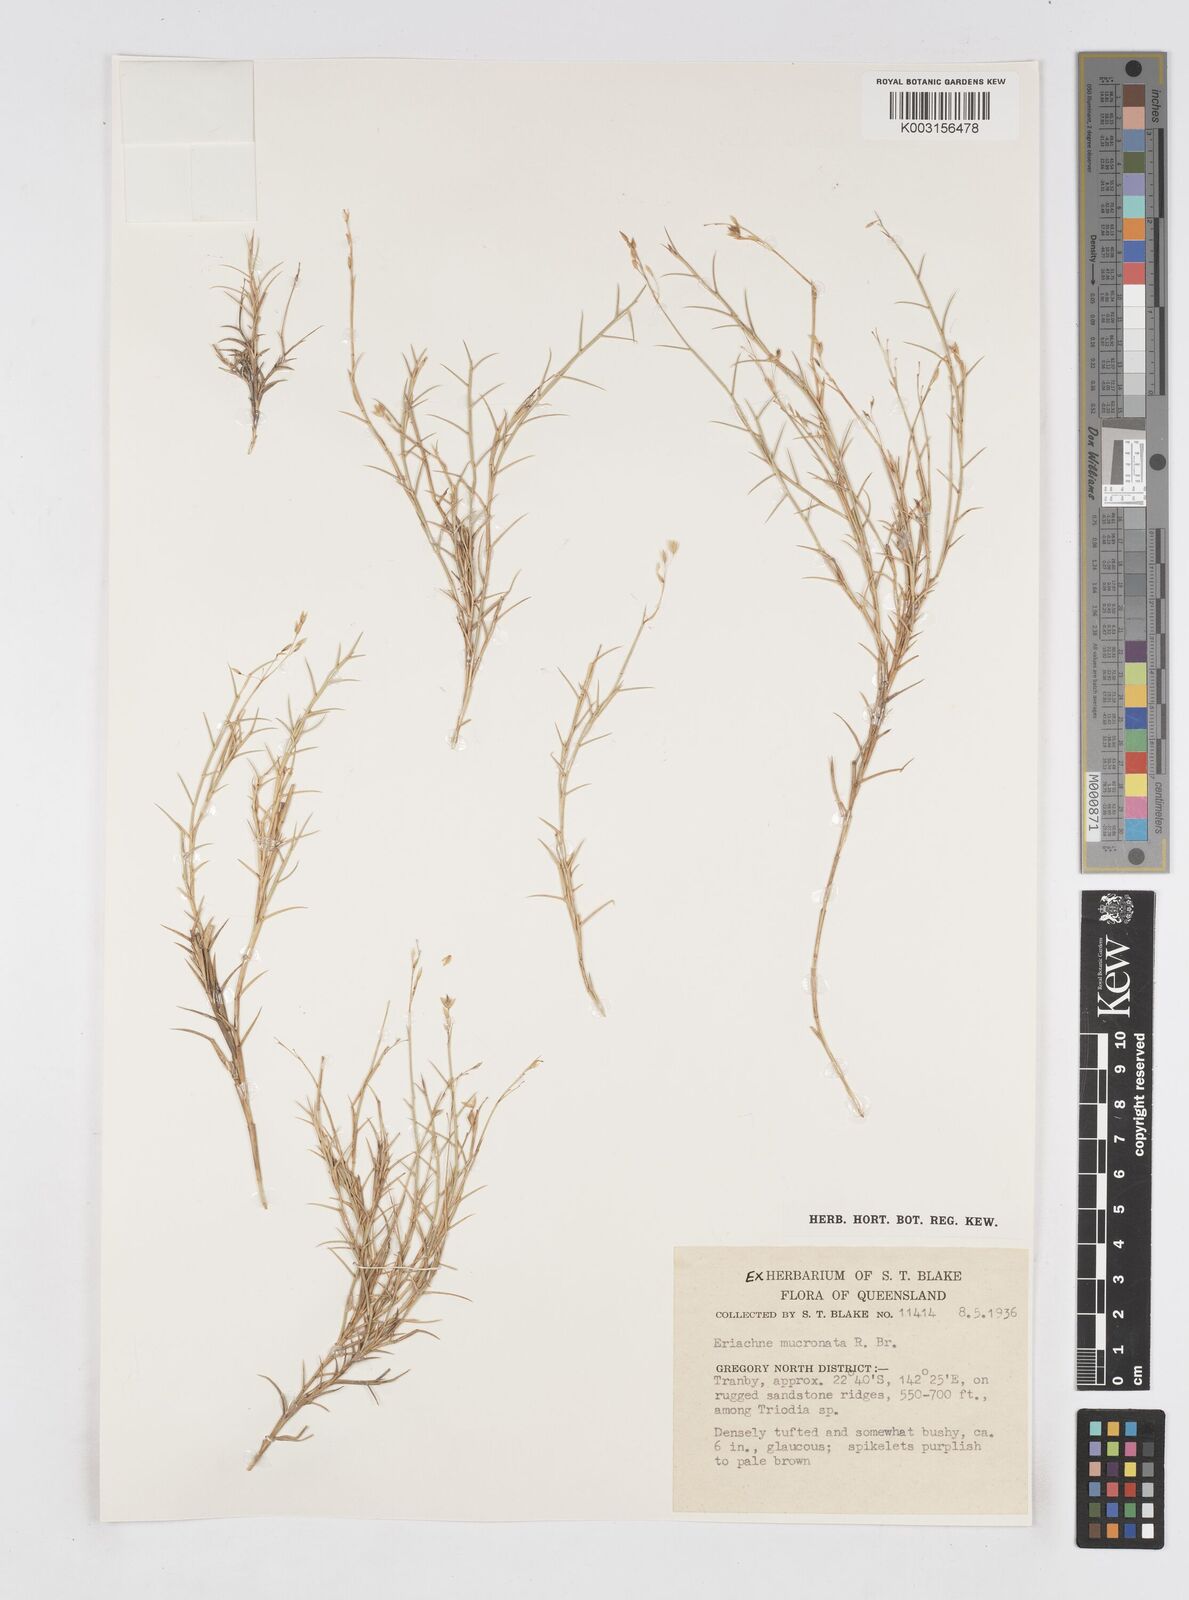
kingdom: Plantae
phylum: Tracheophyta
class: Liliopsida
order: Poales
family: Poaceae
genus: Eriachne
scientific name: Eriachne mucronata
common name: Mountain wanderrie grass
